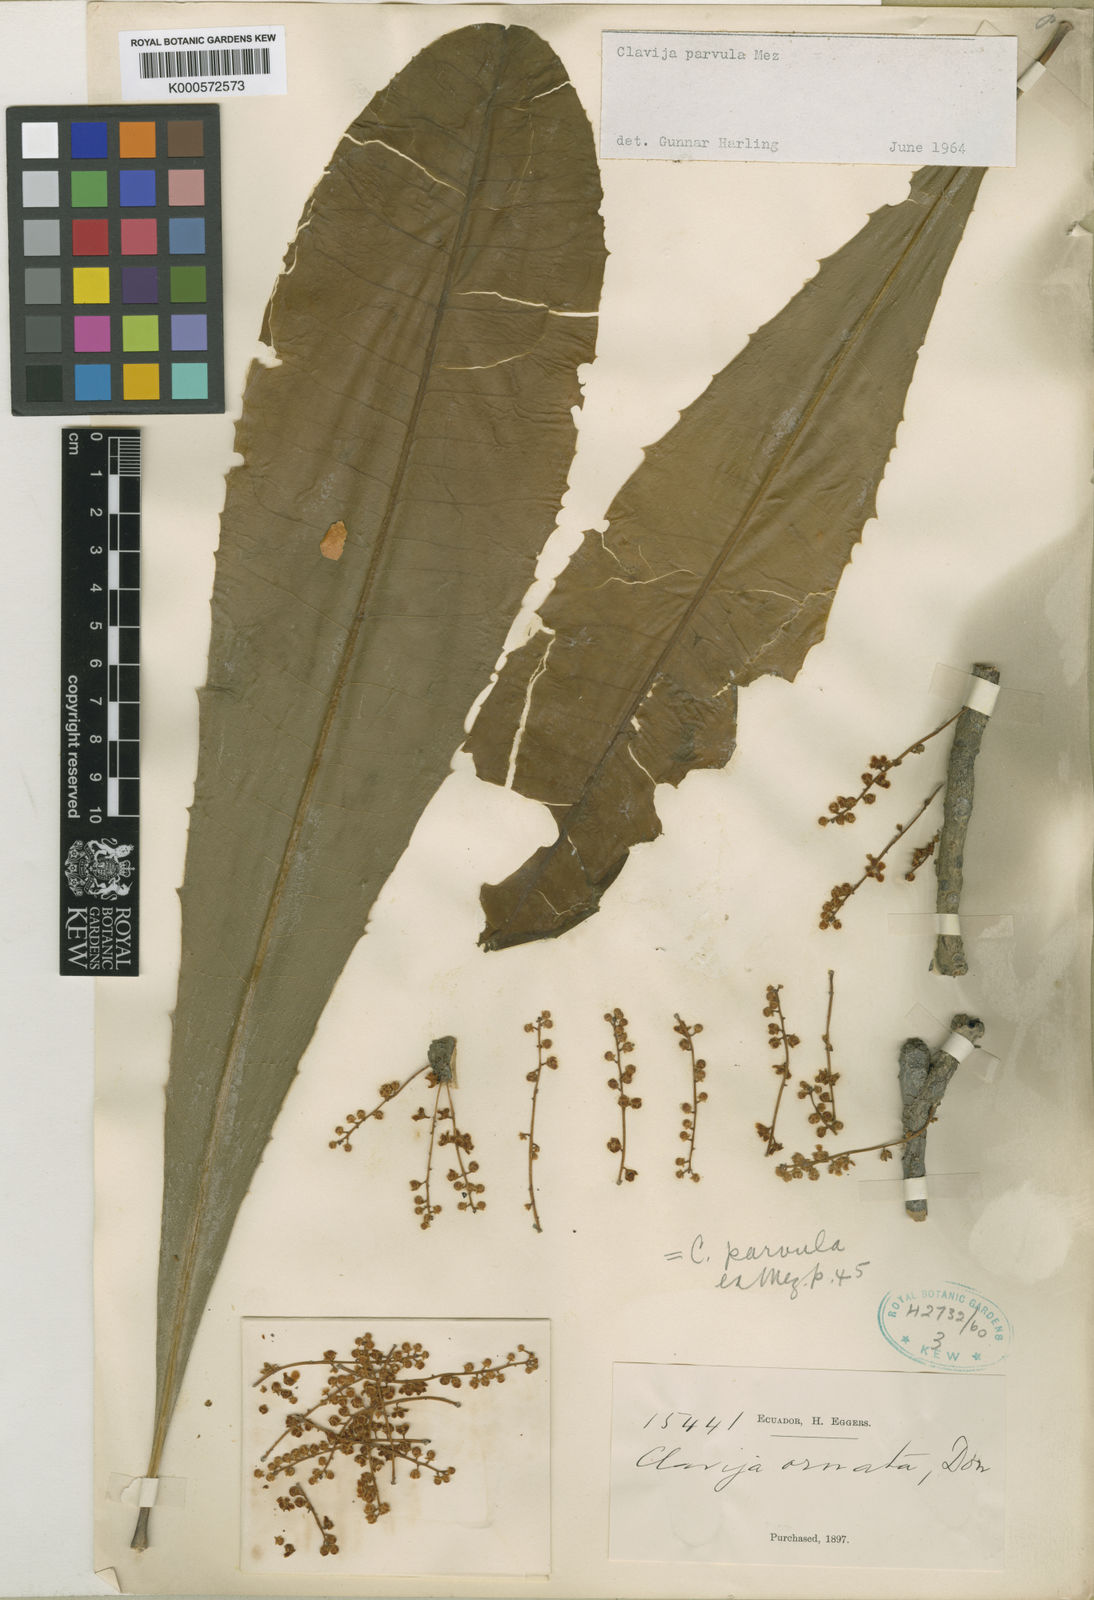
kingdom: Plantae
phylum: Tracheophyta
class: Magnoliopsida
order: Ericales
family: Primulaceae
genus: Clavija
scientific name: Clavija parvula
